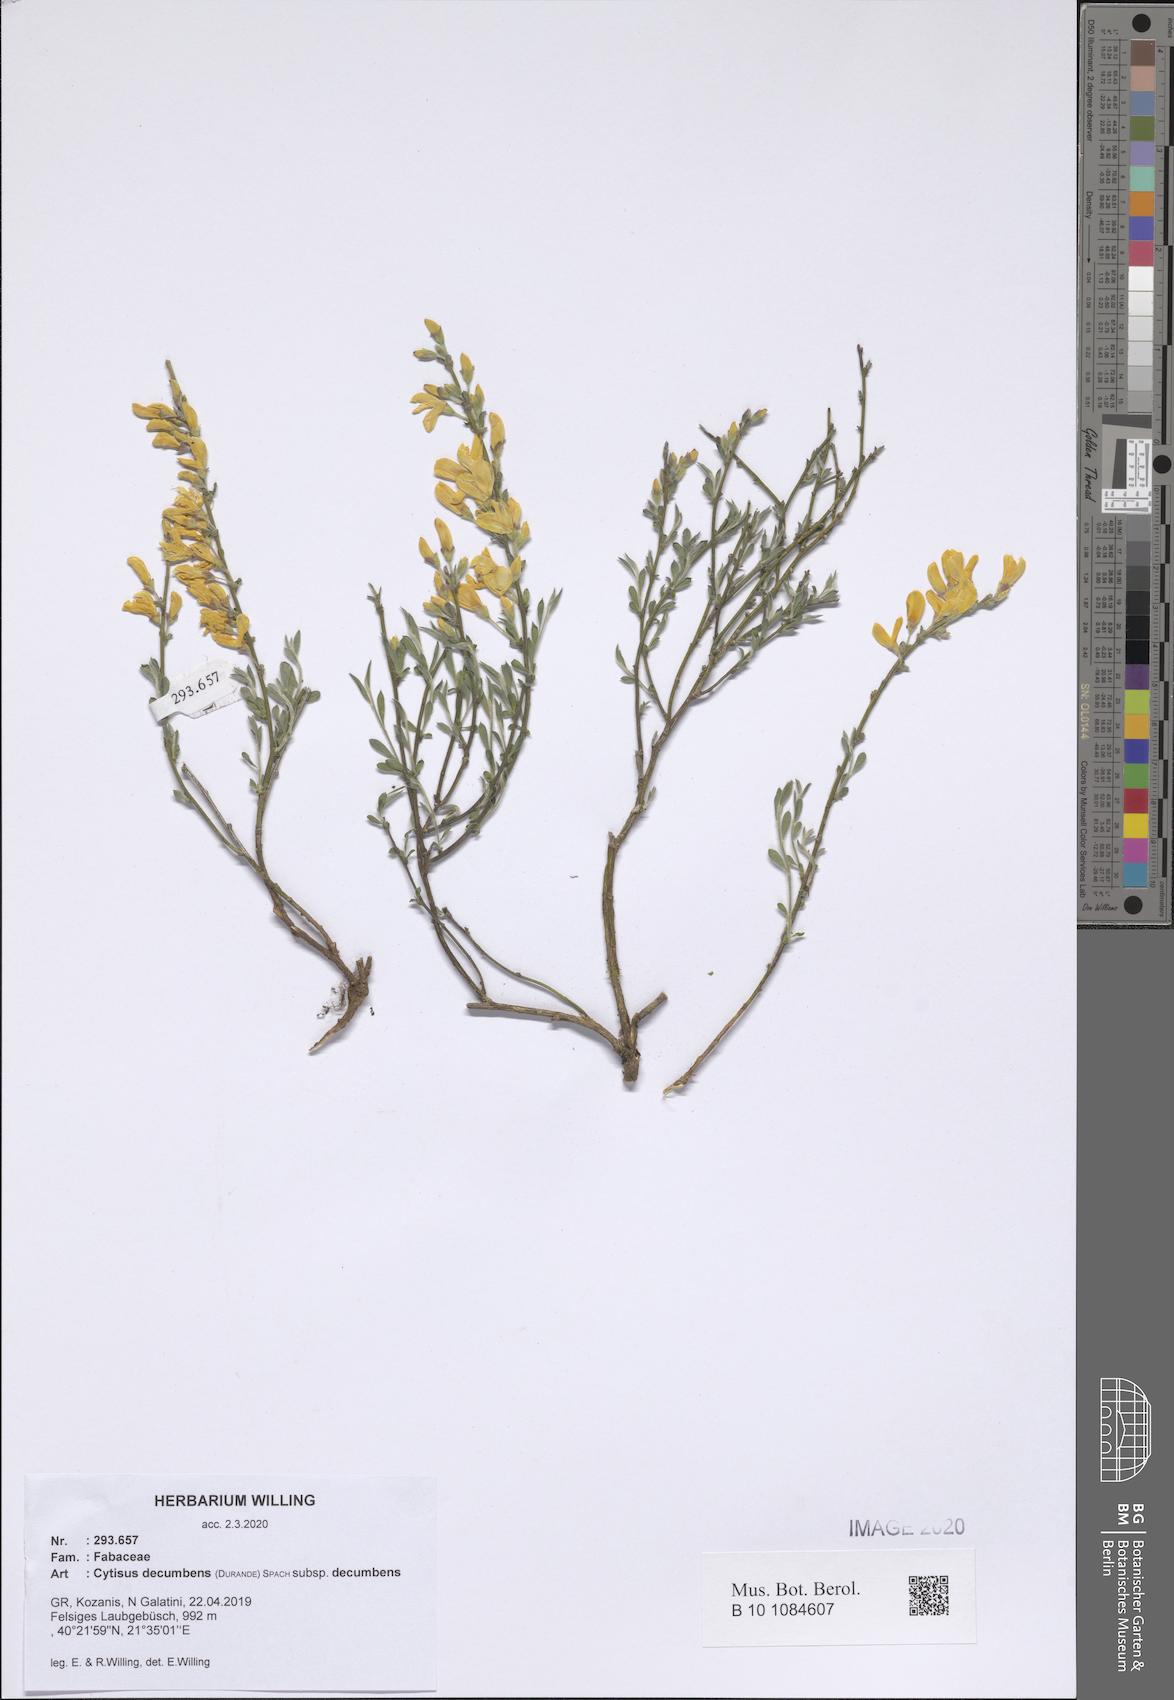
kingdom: Plantae
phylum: Tracheophyta
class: Magnoliopsida
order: Fabales
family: Fabaceae
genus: Cytisus
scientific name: Cytisus decumbens
